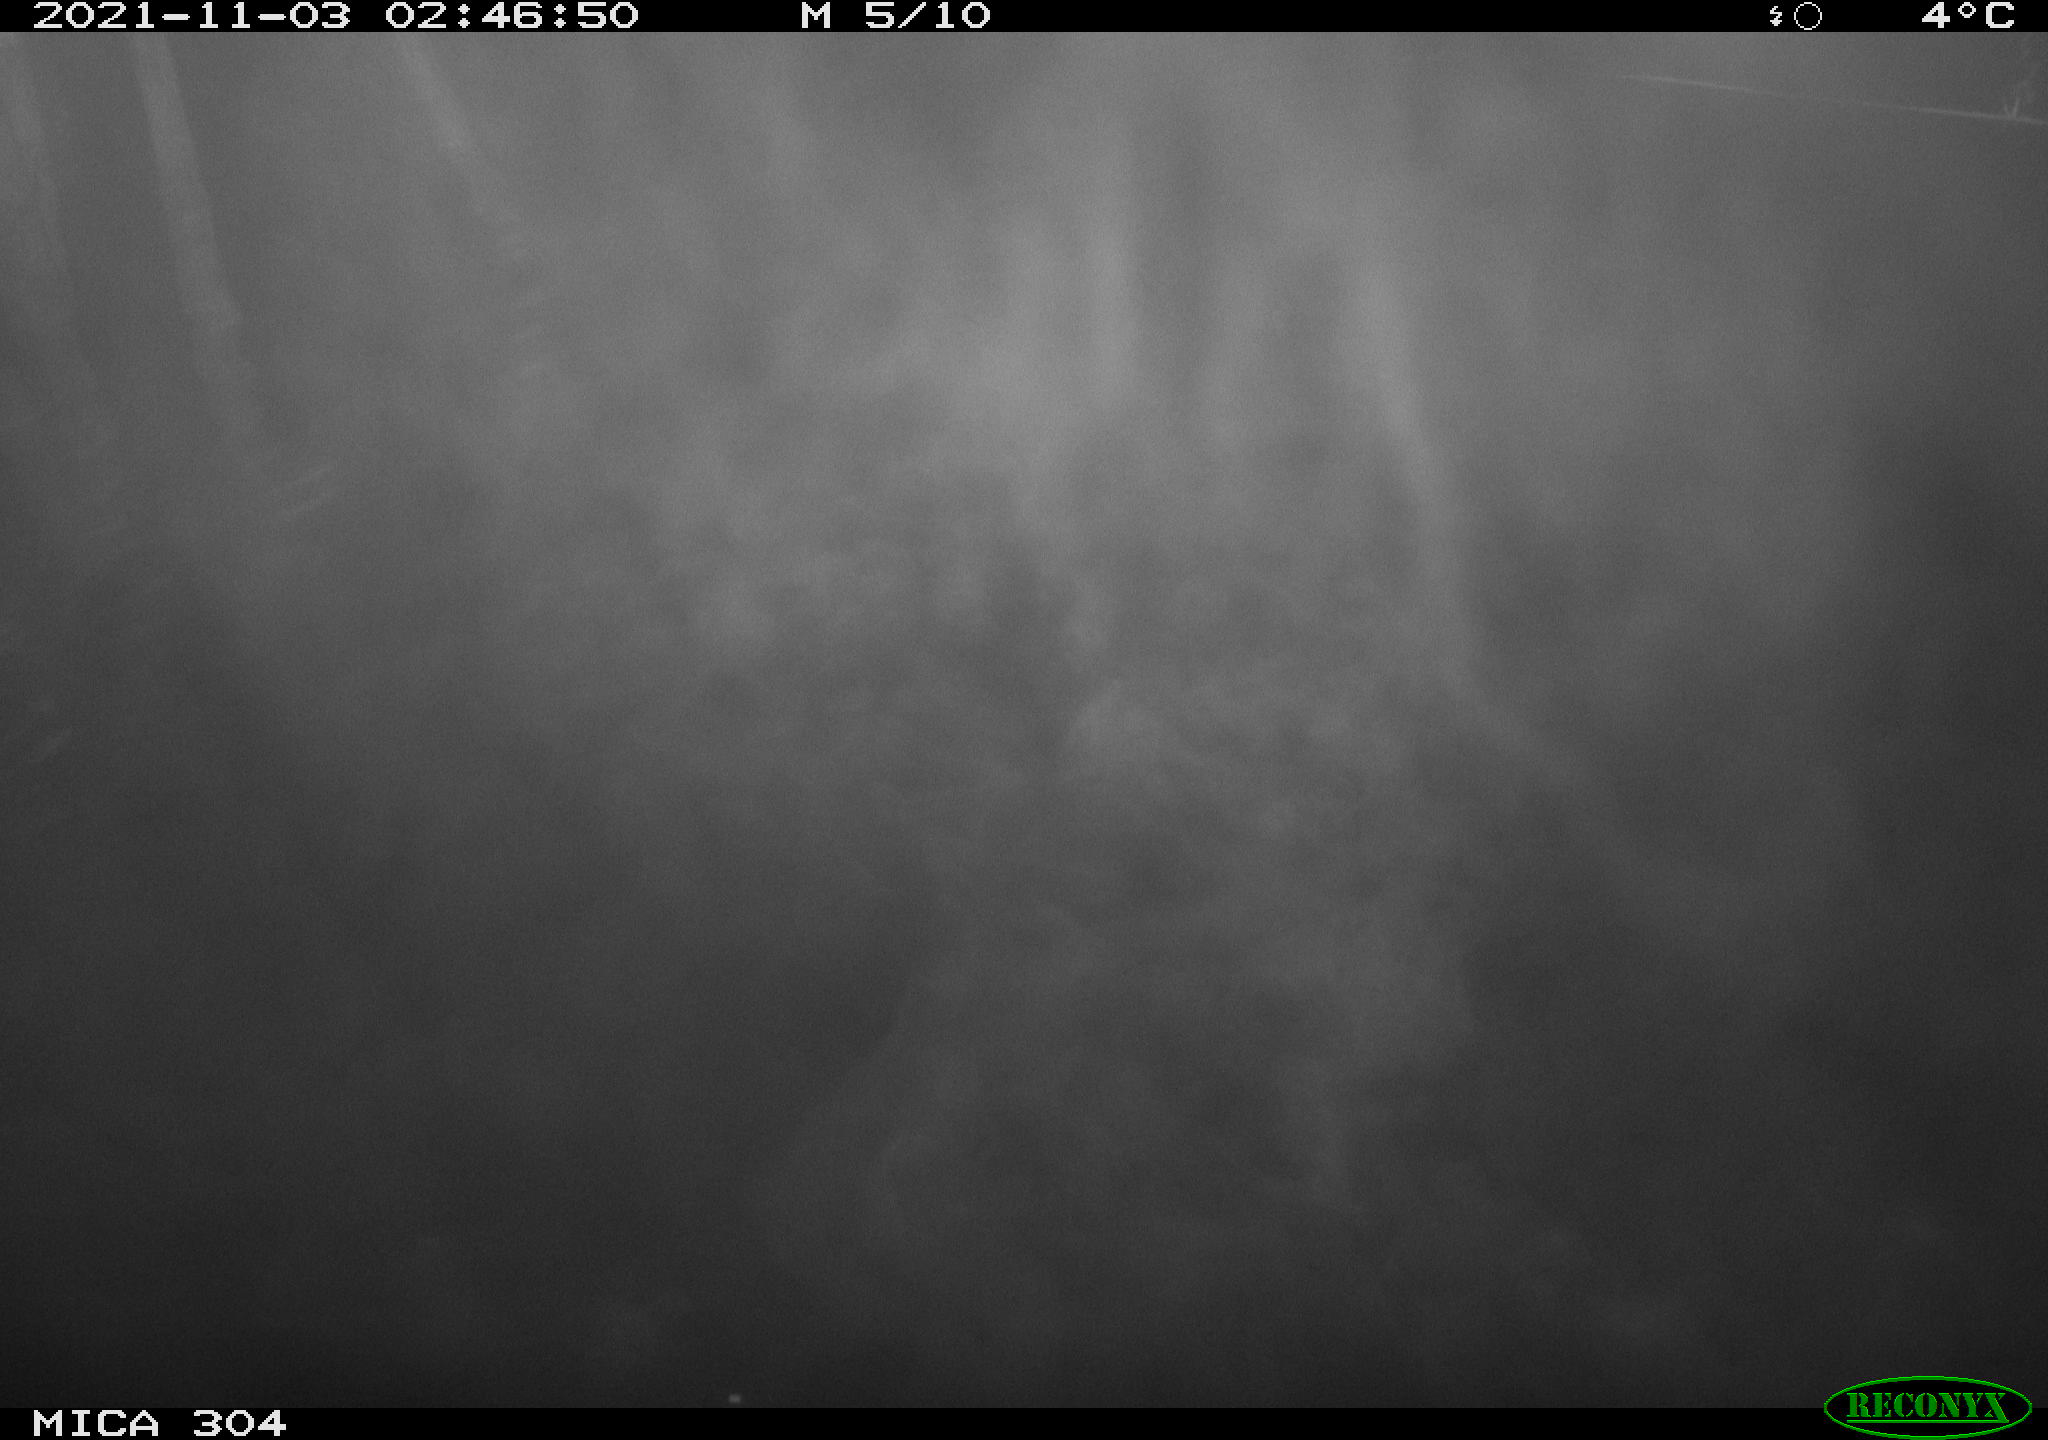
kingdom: Animalia
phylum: Chordata
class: Mammalia
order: Rodentia
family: Cricetidae
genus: Ondatra
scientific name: Ondatra zibethicus
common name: Muskrat
